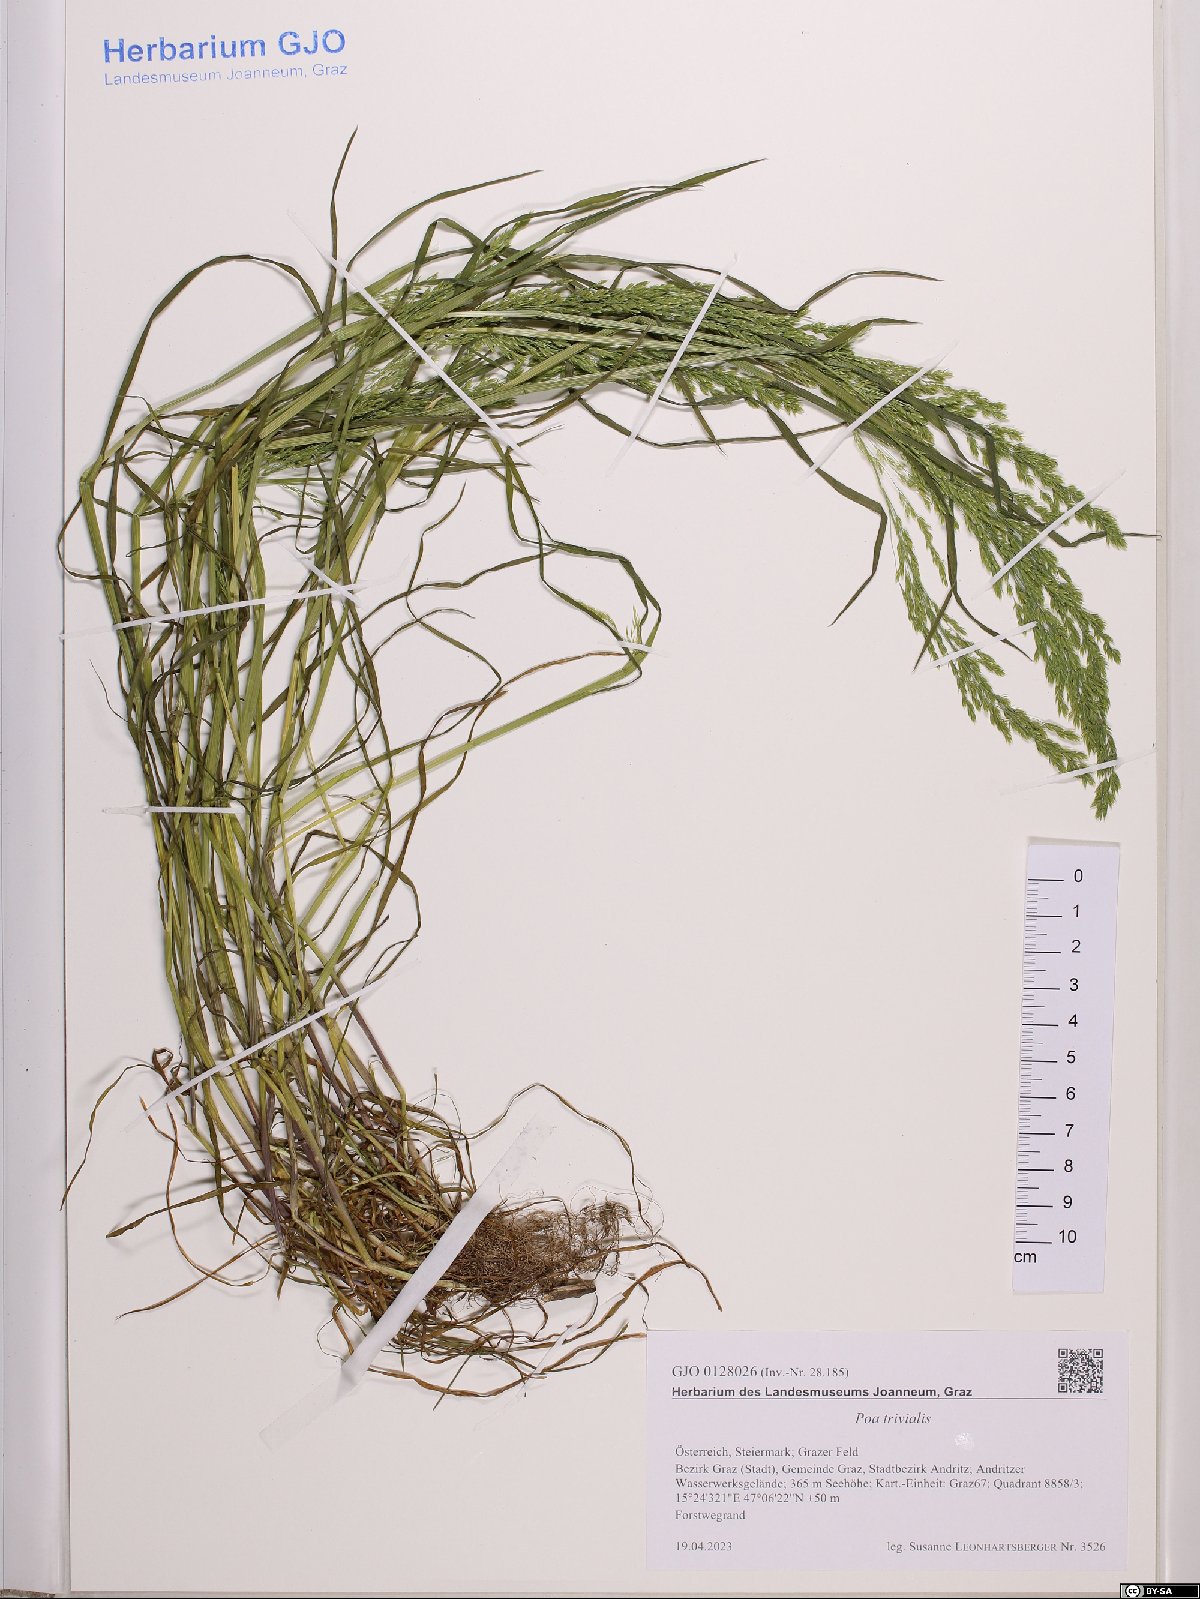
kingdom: Plantae
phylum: Tracheophyta
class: Liliopsida
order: Poales
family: Poaceae
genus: Poa
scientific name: Poa trivialis
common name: Rough bluegrass
